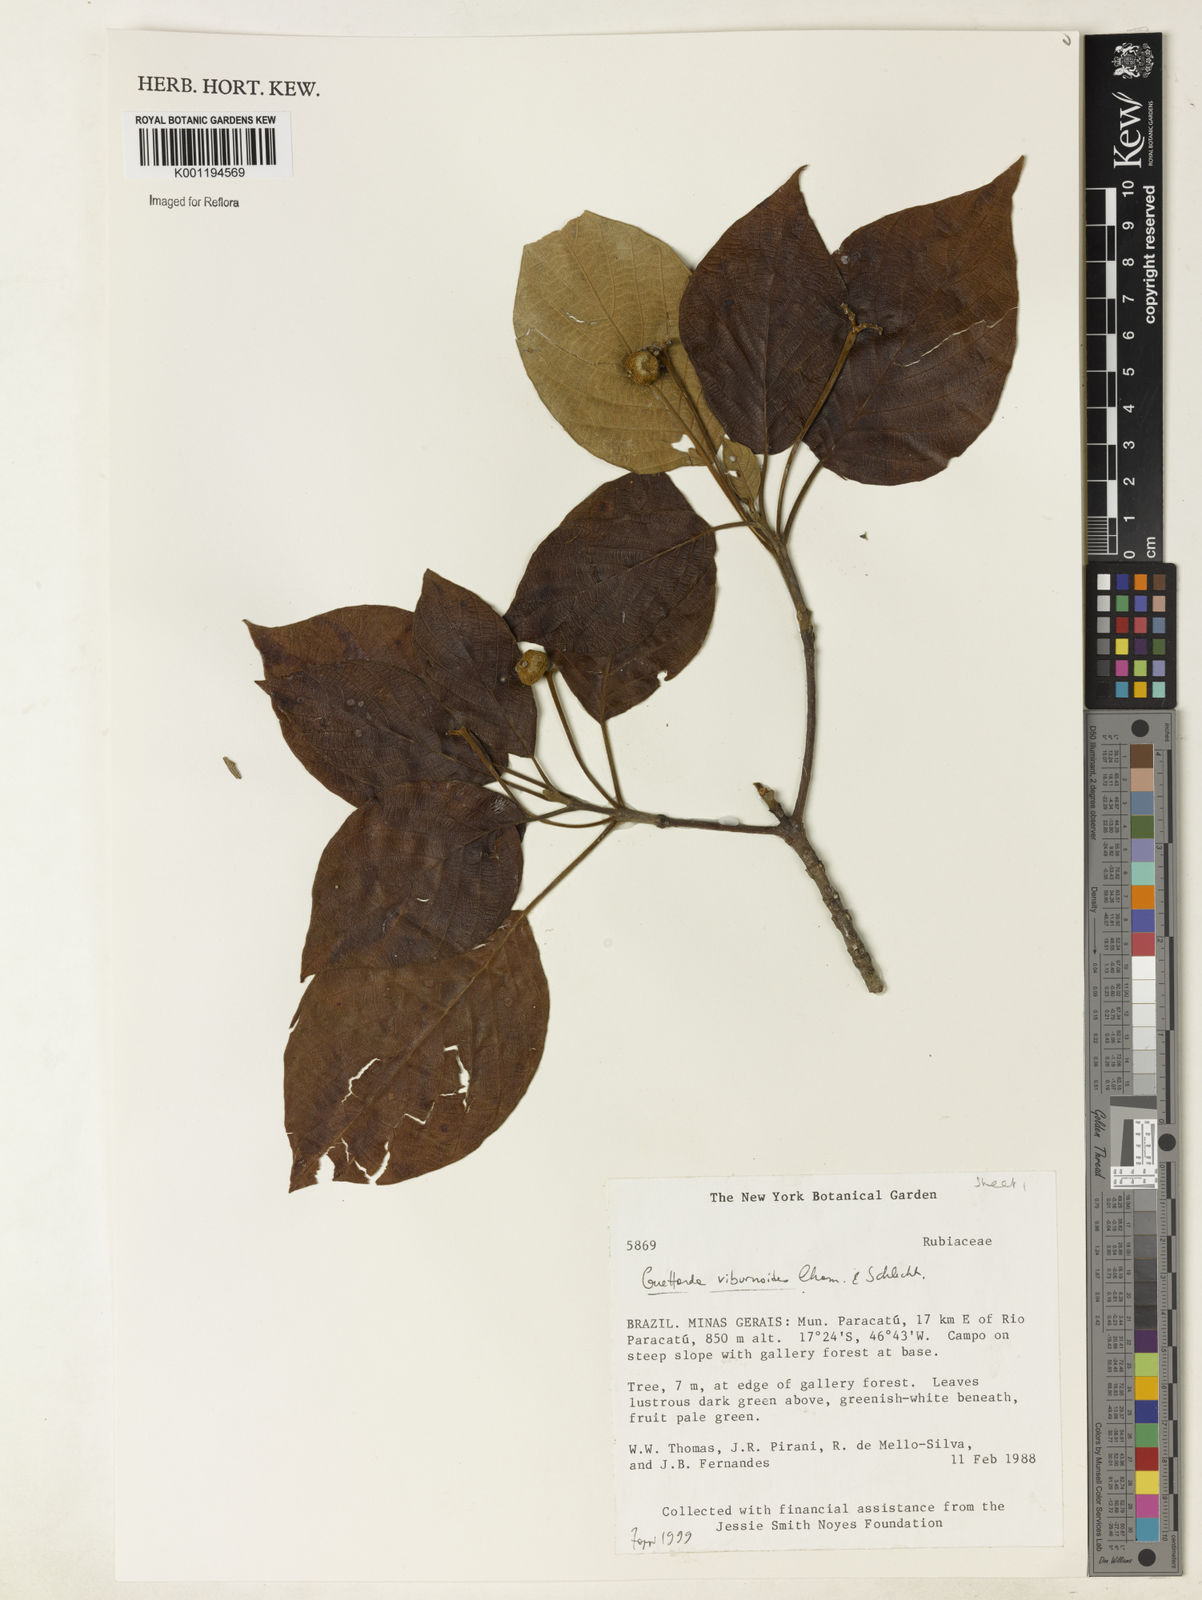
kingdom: Plantae
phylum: Tracheophyta
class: Magnoliopsida
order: Gentianales
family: Rubiaceae
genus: Guettarda
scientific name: Guettarda viburnoides
